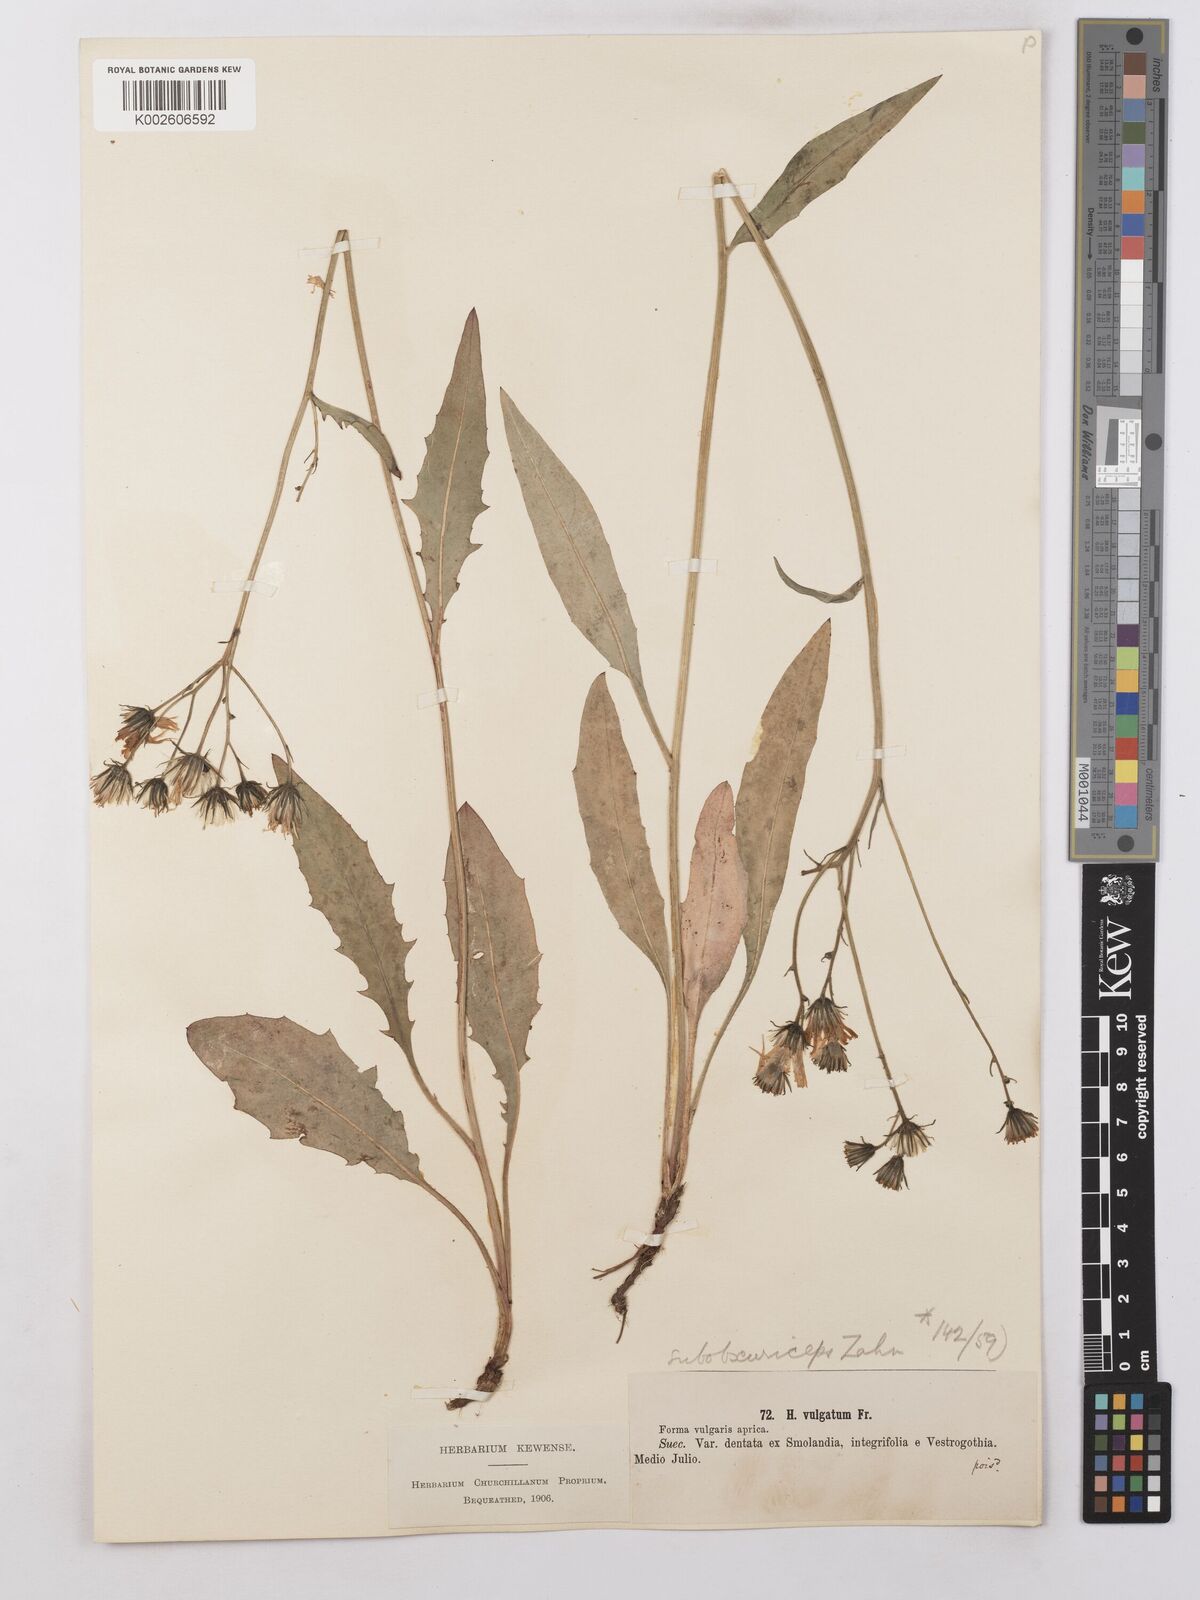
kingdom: Plantae
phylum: Tracheophyta
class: Magnoliopsida
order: Asterales
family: Asteraceae
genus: Hieracium
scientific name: Hieracium lachenalii
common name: Common hawkweed
